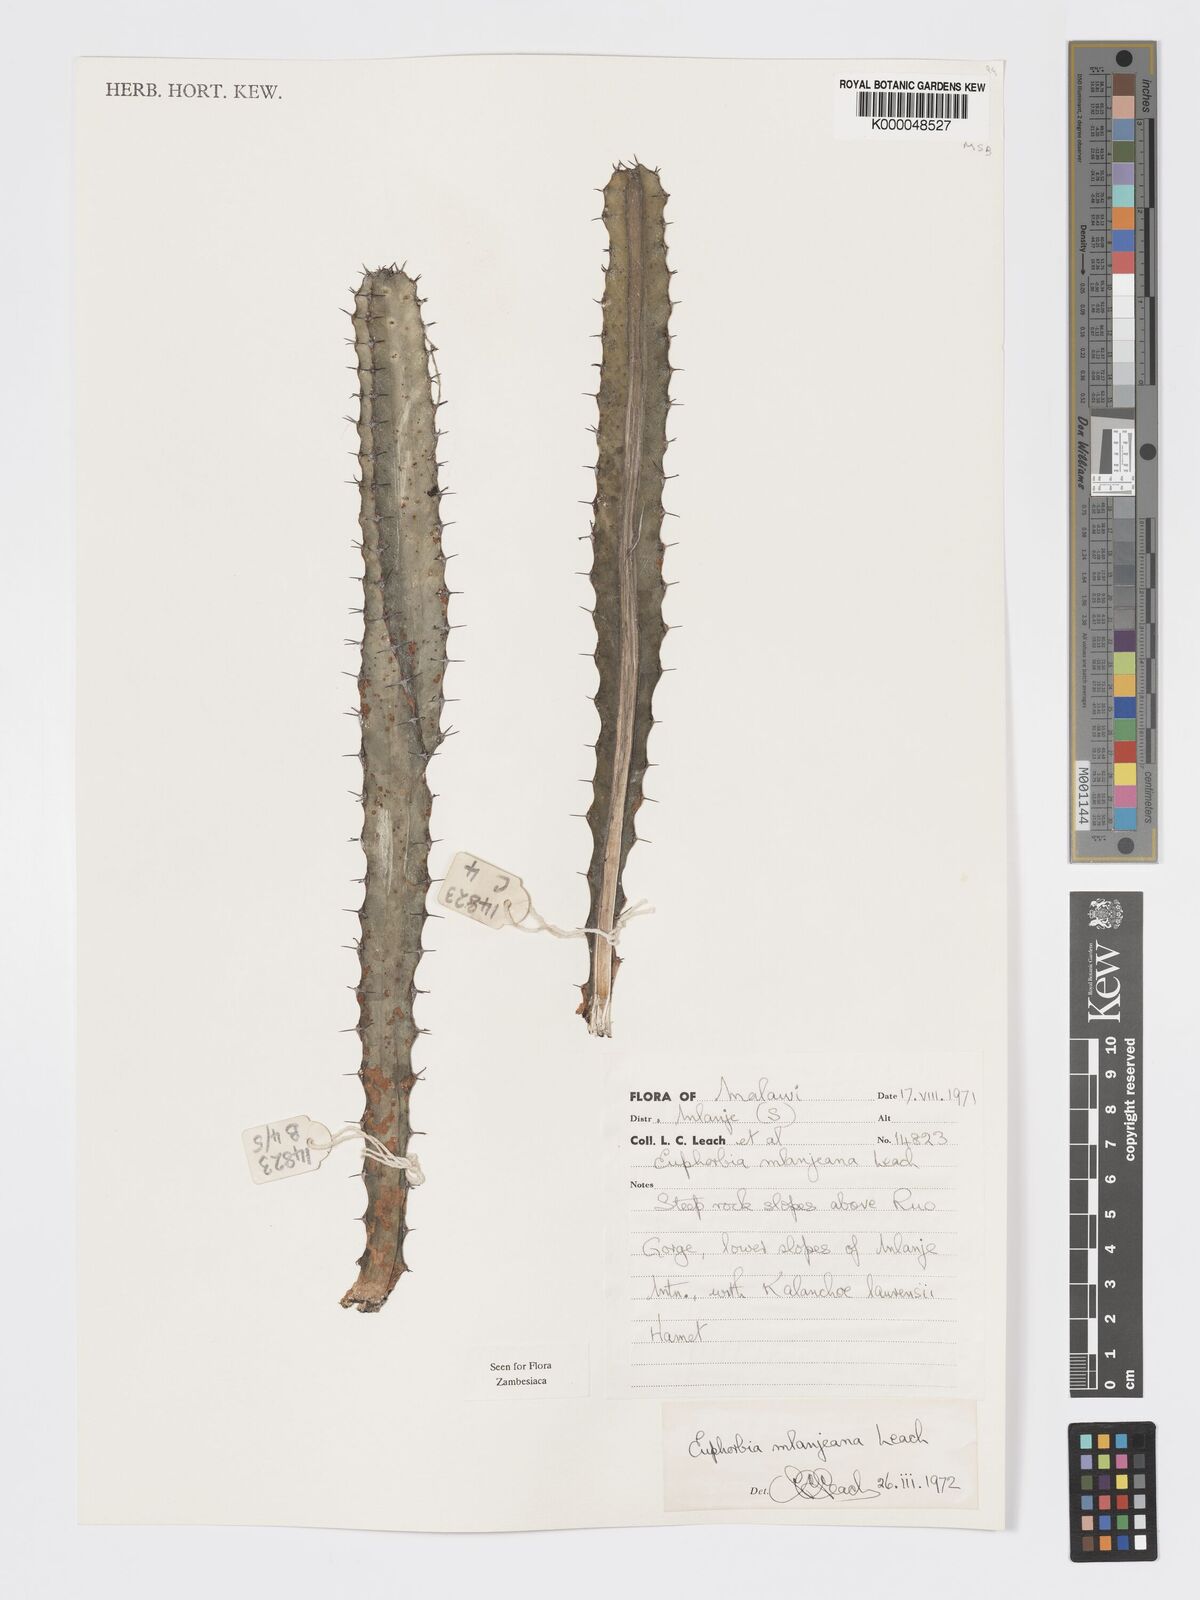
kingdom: Plantae
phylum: Tracheophyta
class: Magnoliopsida
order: Malpighiales
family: Euphorbiaceae
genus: Euphorbia
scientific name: Euphorbia mlanjeana
